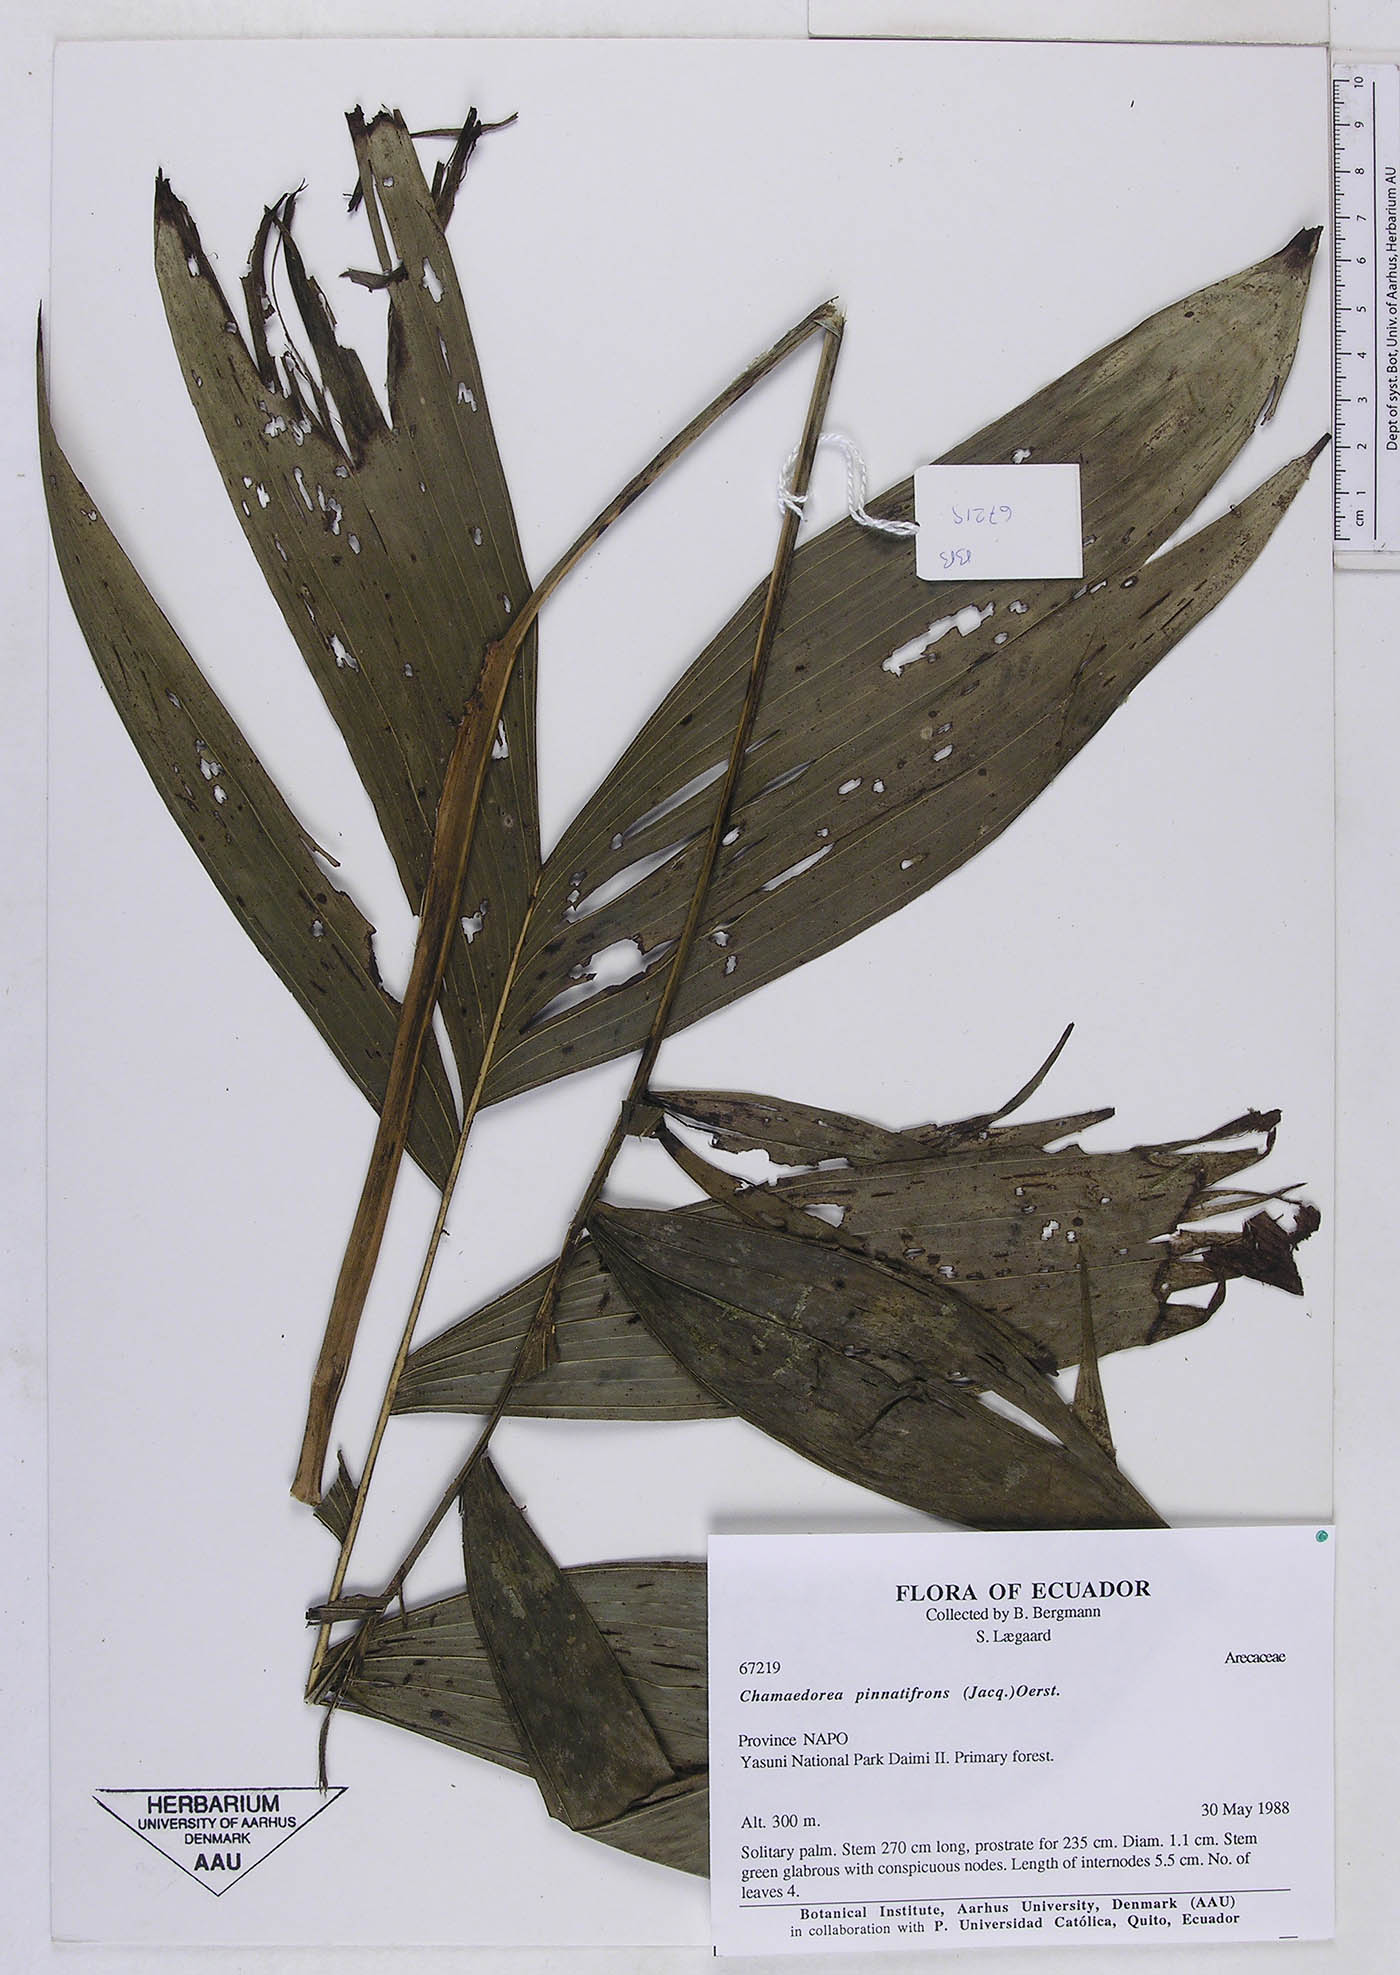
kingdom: Plantae
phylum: Tracheophyta
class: Liliopsida
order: Arecales
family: Arecaceae
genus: Chamaedorea
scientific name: Chamaedorea pinnatifrons
